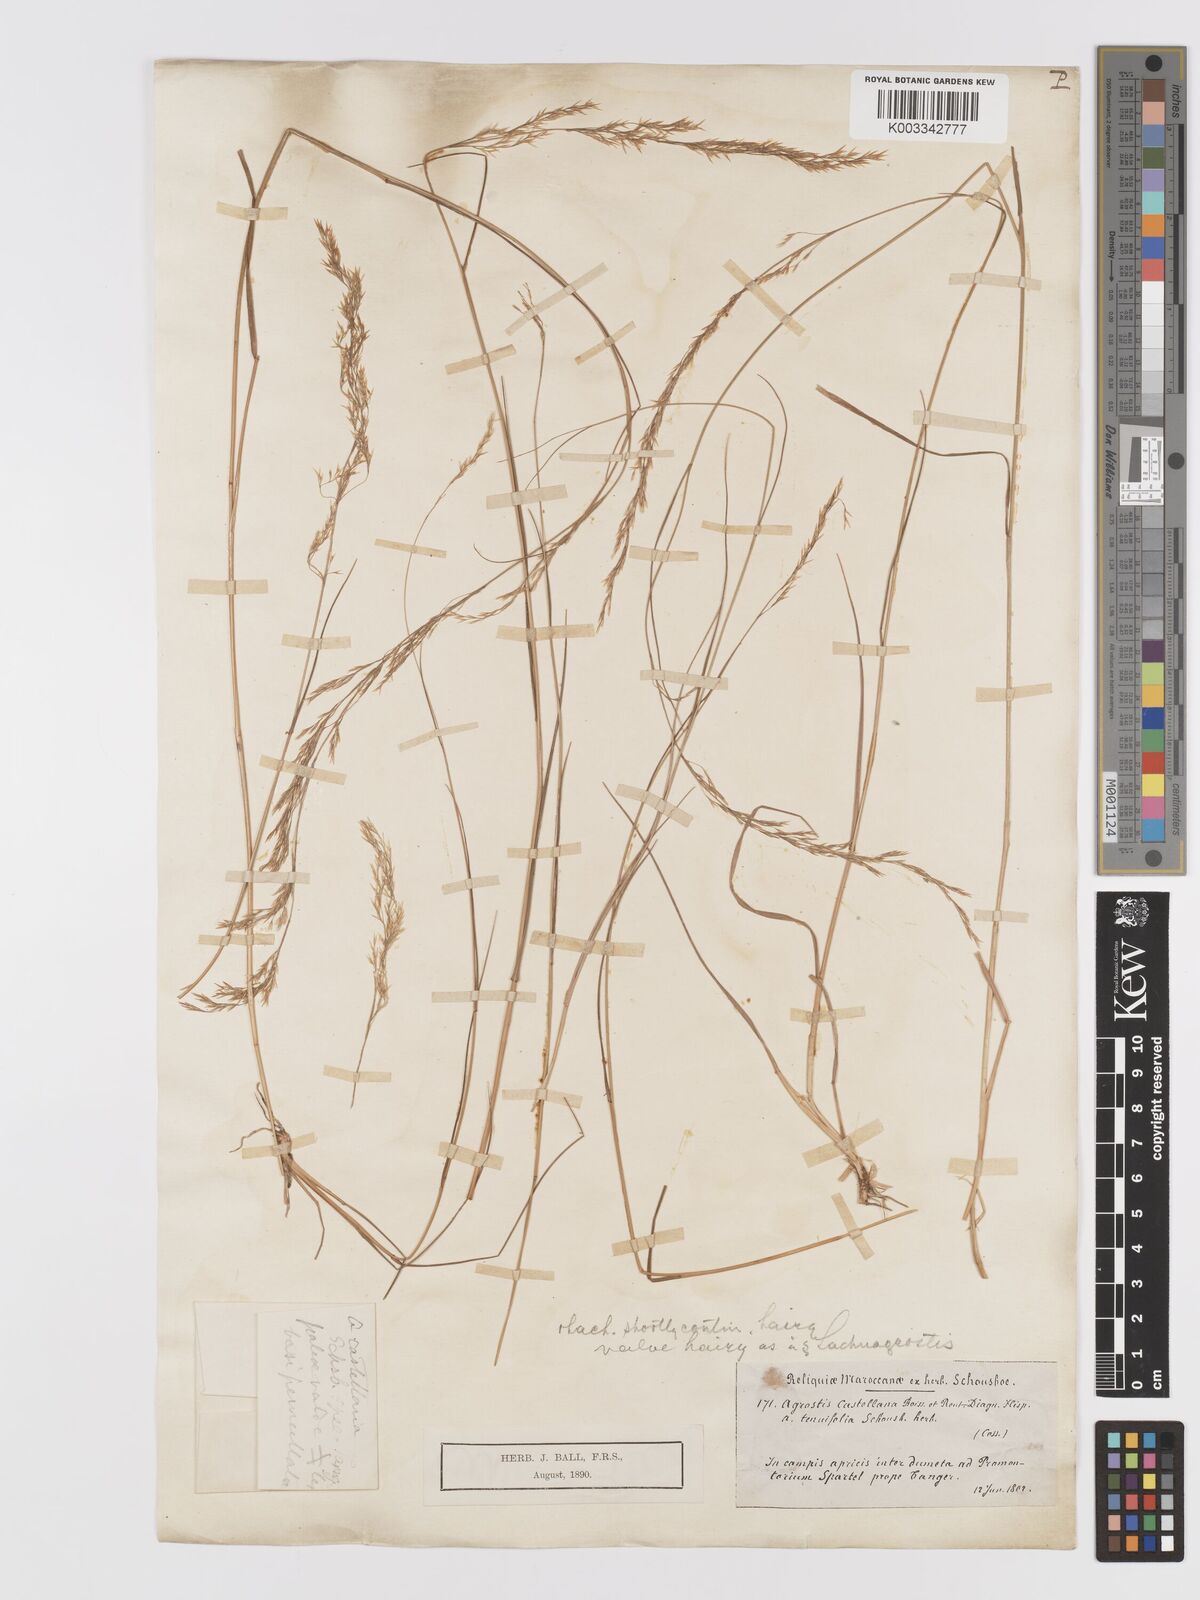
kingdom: Plantae
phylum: Tracheophyta
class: Liliopsida
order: Poales
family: Poaceae
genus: Agrostis
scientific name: Agrostis castellana
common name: Highland bent
